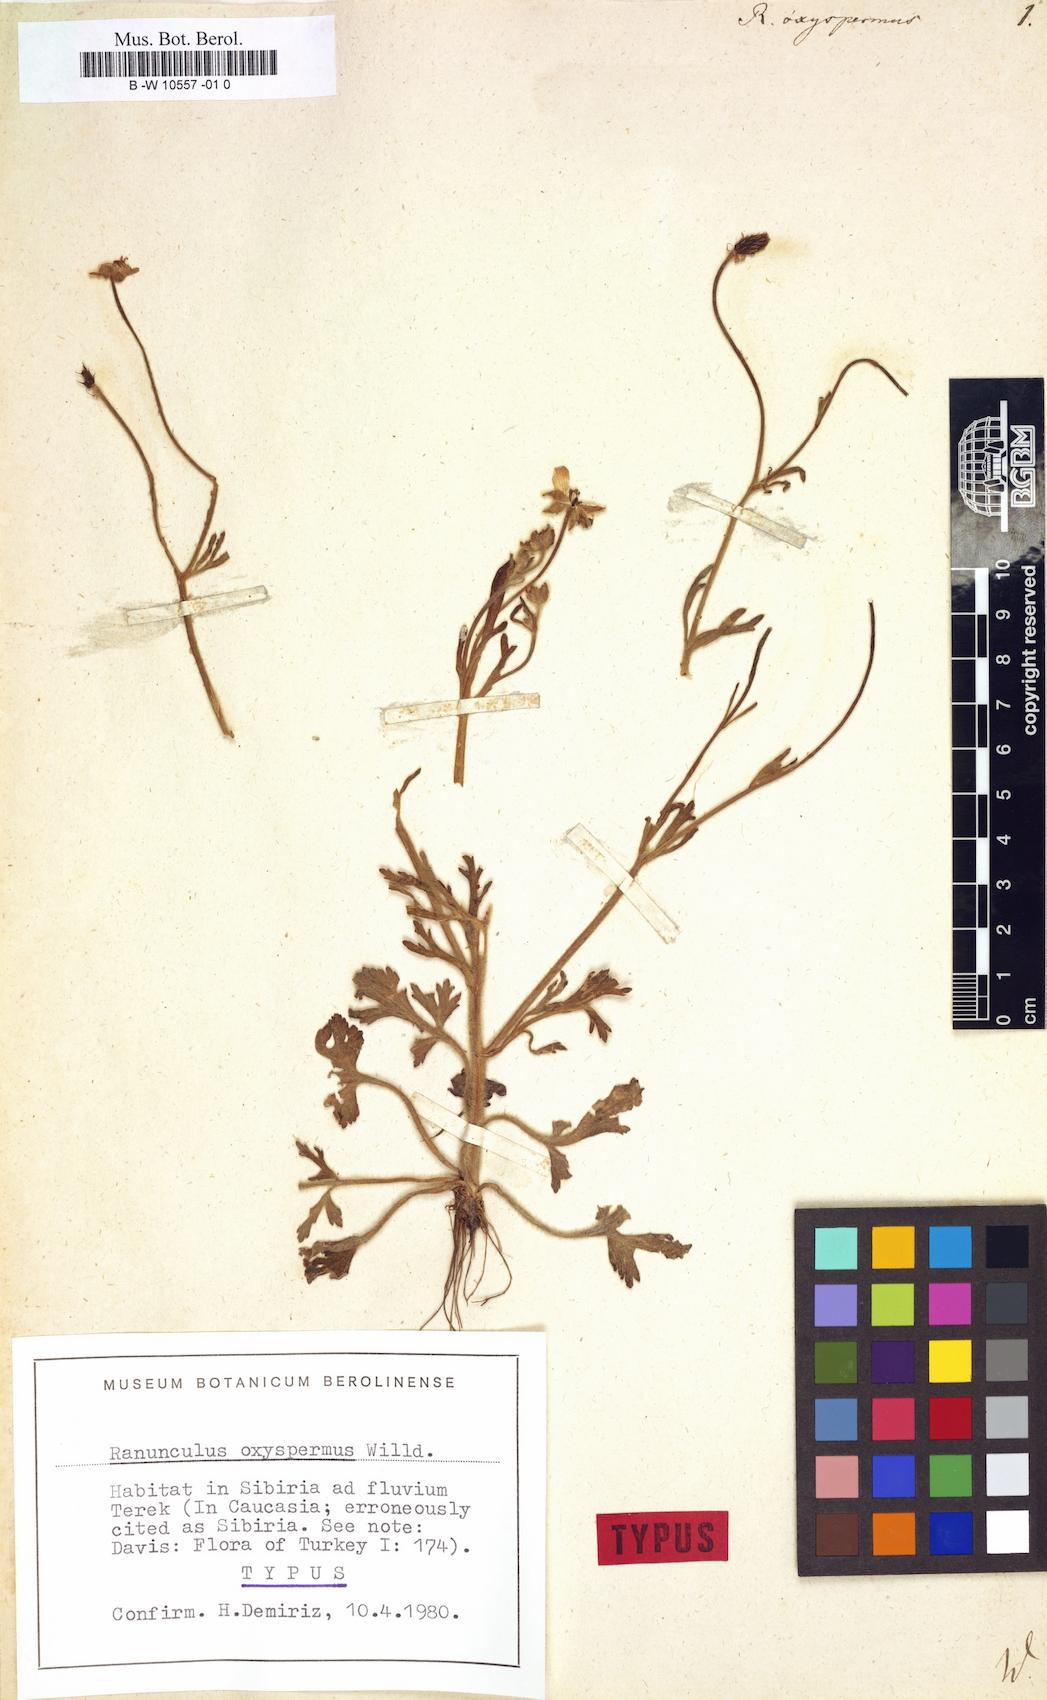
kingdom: Plantae
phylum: Tracheophyta
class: Magnoliopsida
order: Ranunculales
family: Ranunculaceae
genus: Ranunculus
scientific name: Ranunculus oxyspermus
